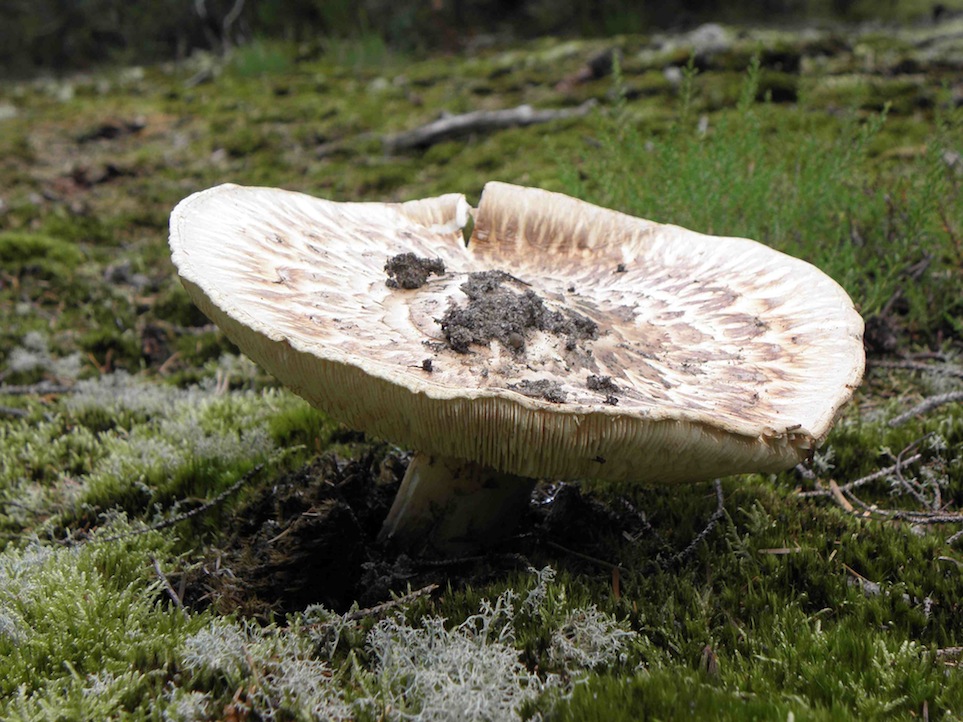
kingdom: Fungi
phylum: Basidiomycota
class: Agaricomycetes
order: Agaricales
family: Tricholomataceae
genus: Tricholoma
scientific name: Tricholoma matsutake
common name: duft-ridderhat
